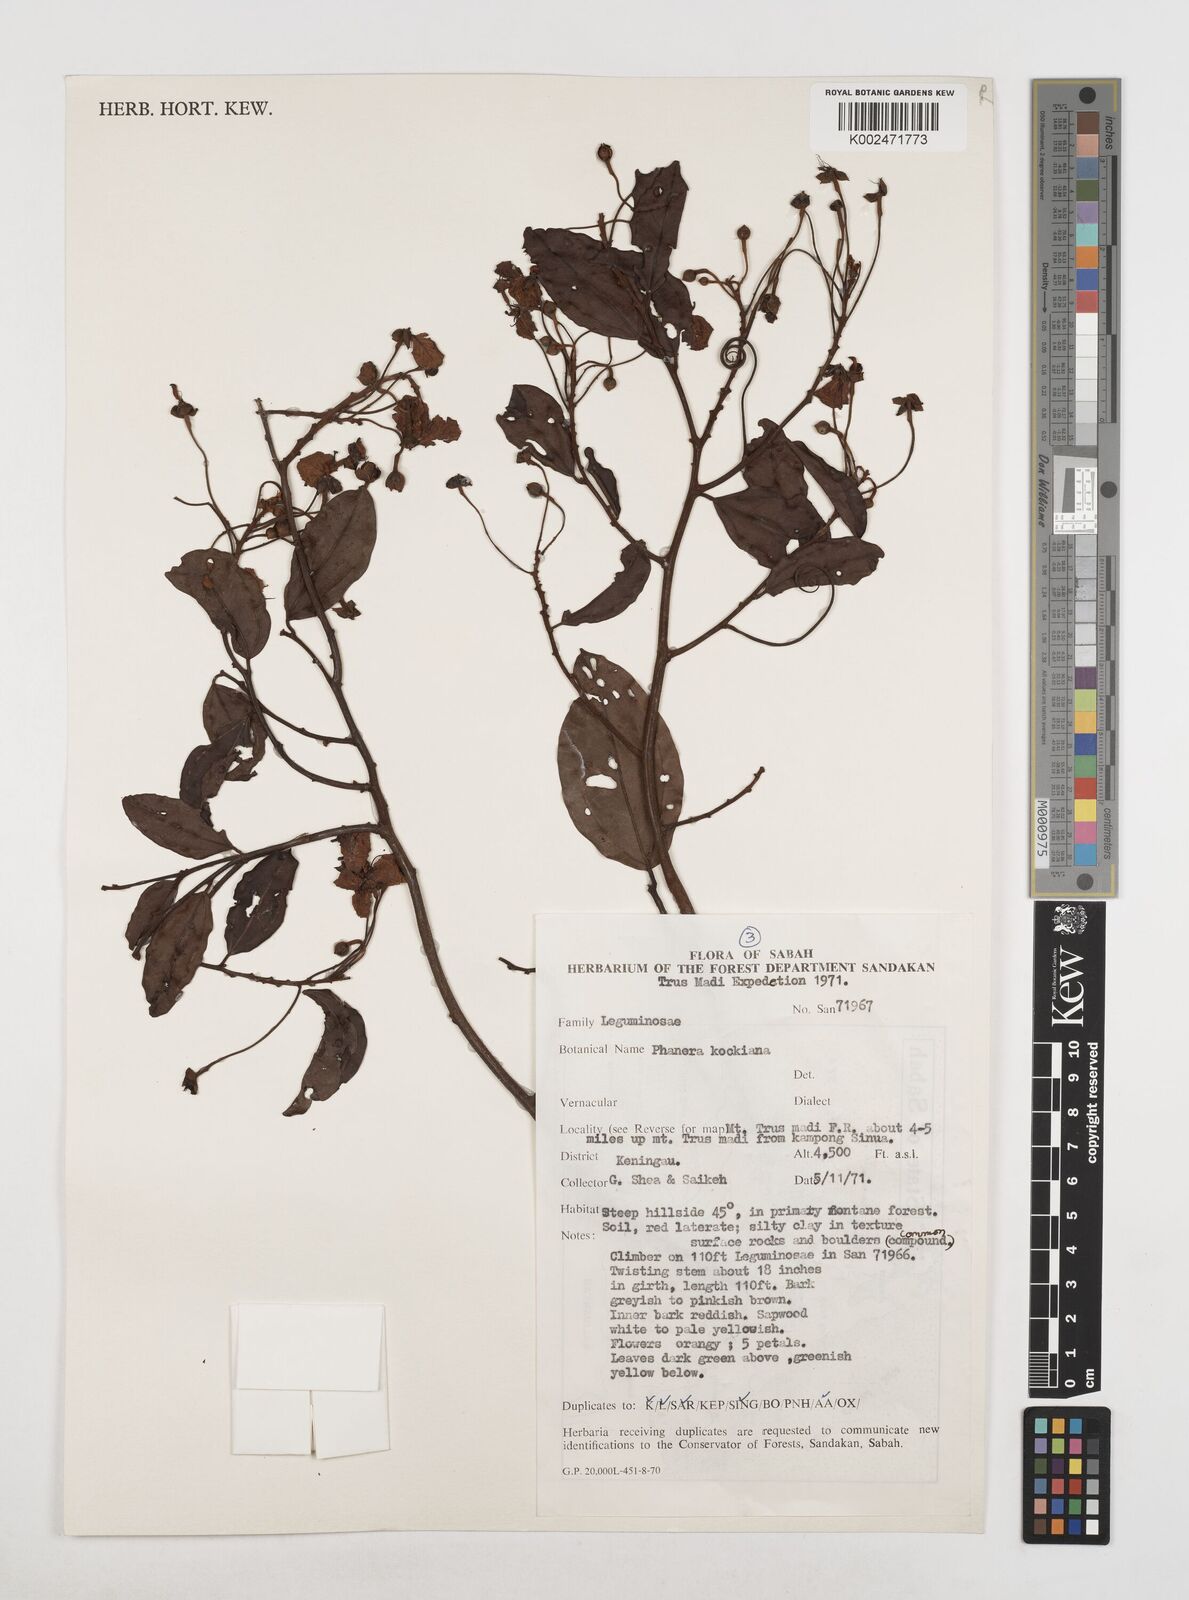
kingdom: Plantae
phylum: Tracheophyta
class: Magnoliopsida
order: Fabales
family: Fabaceae
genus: Phanera
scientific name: Phanera kockiana
